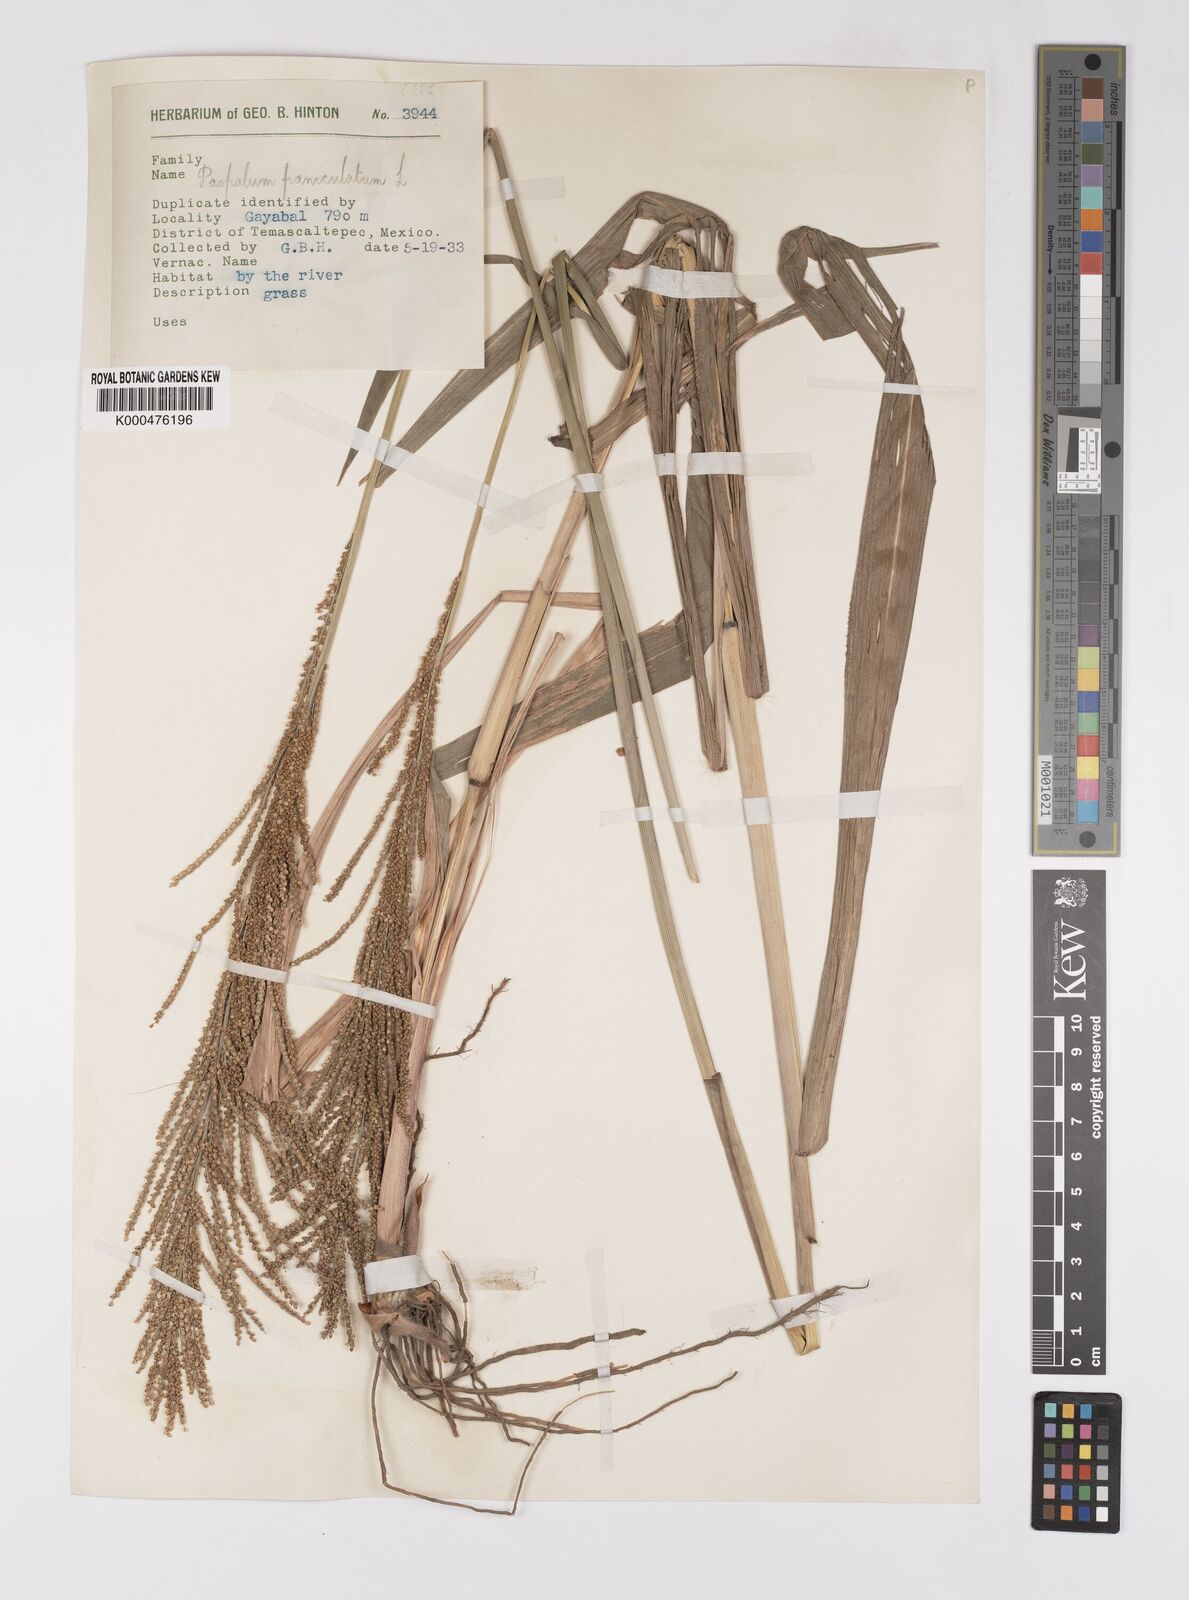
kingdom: Plantae
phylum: Tracheophyta
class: Liliopsida
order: Poales
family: Poaceae
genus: Paspalum
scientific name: Paspalum paniculatum
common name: Arrocillo
